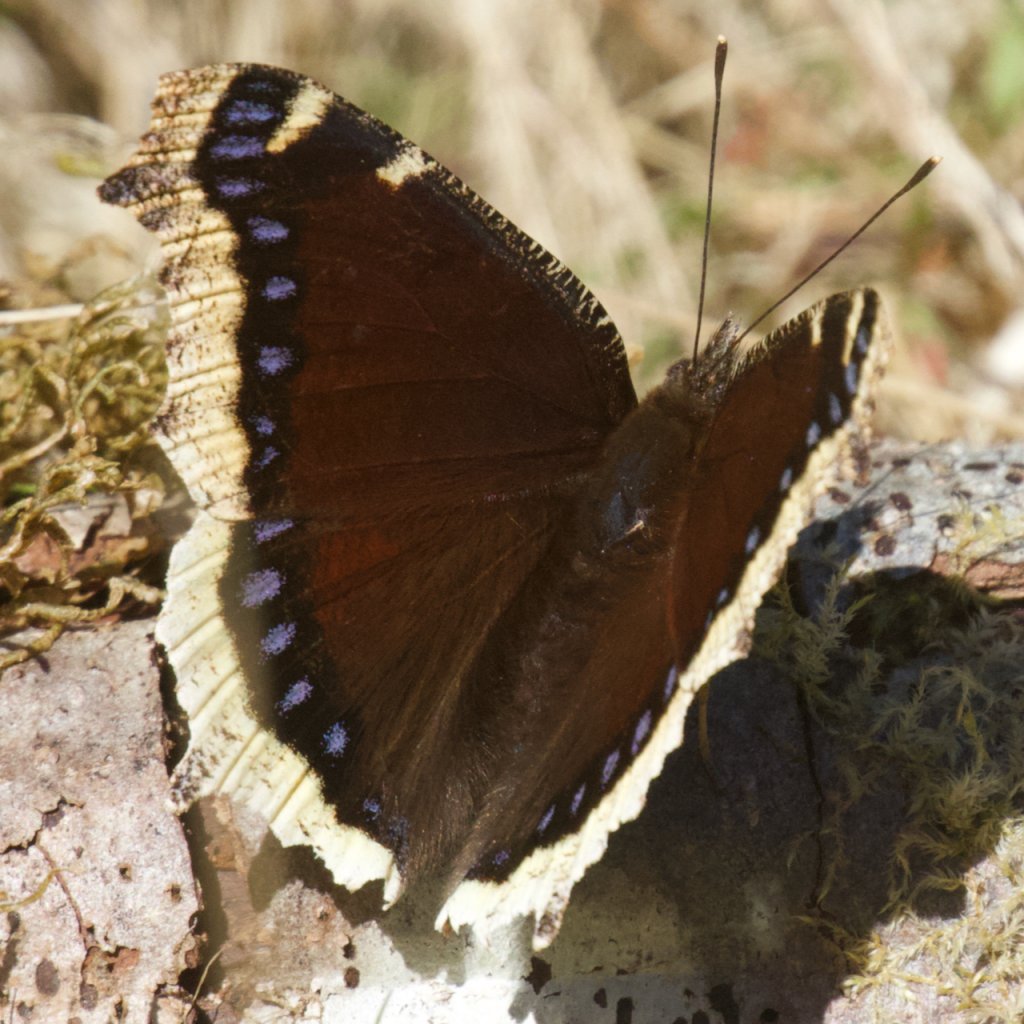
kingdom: Animalia
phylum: Arthropoda
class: Insecta
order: Lepidoptera
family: Nymphalidae
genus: Nymphalis
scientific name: Nymphalis antiopa
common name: Mourning Cloak
